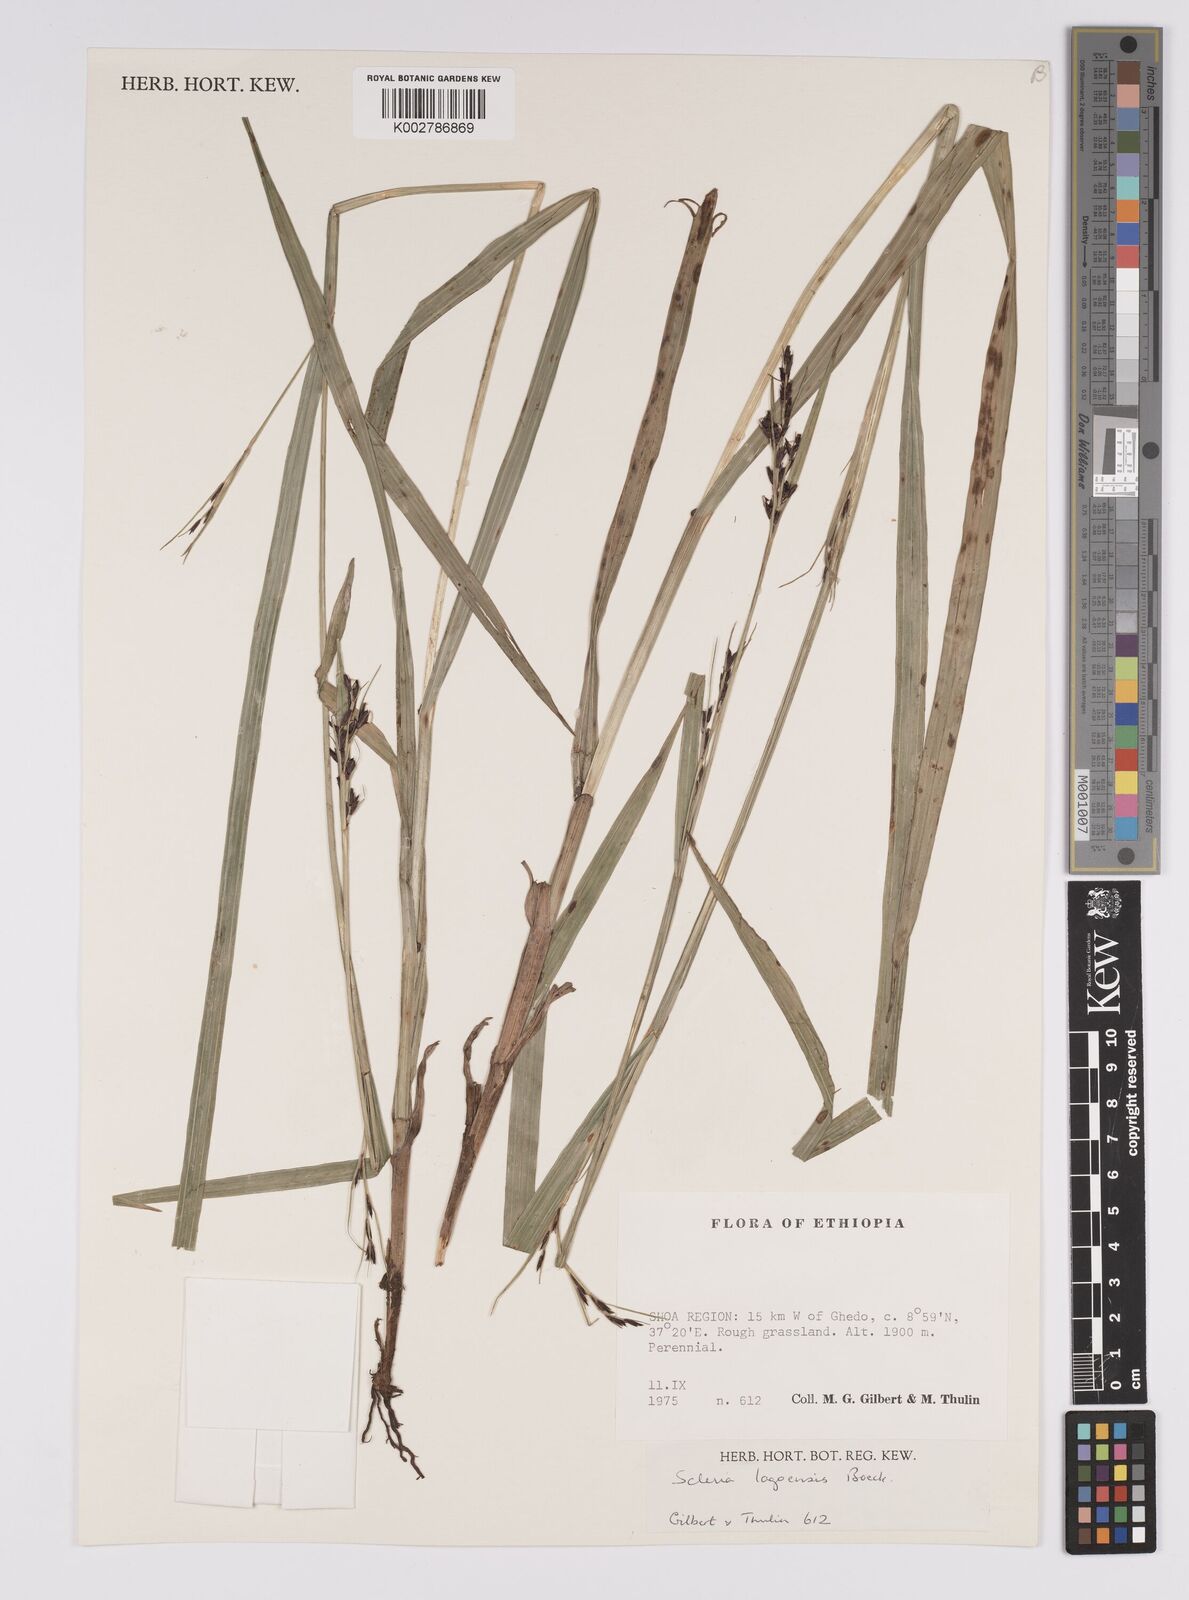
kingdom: Plantae
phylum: Tracheophyta
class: Liliopsida
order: Poales
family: Cyperaceae
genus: Scleria
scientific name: Scleria lagoensis
